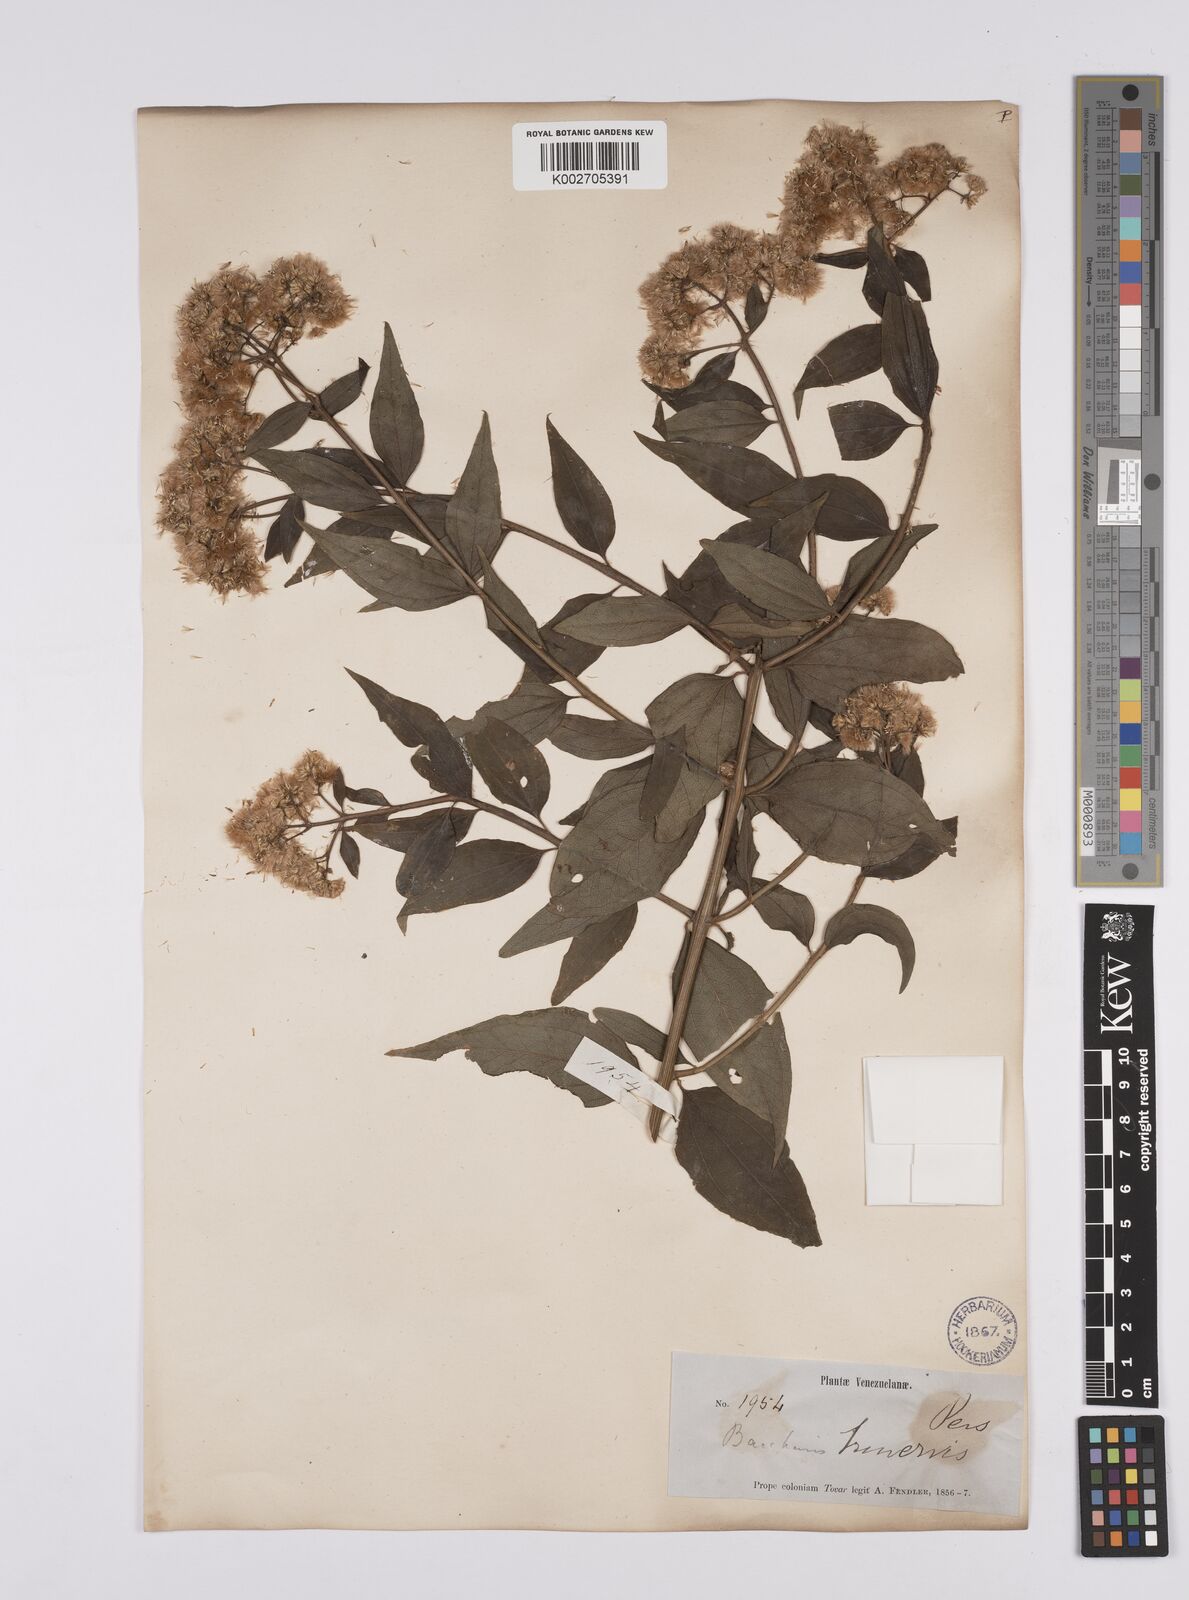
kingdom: Plantae
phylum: Tracheophyta
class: Magnoliopsida
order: Asterales
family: Asteraceae
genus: Baccharis
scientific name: Baccharis trinervis
